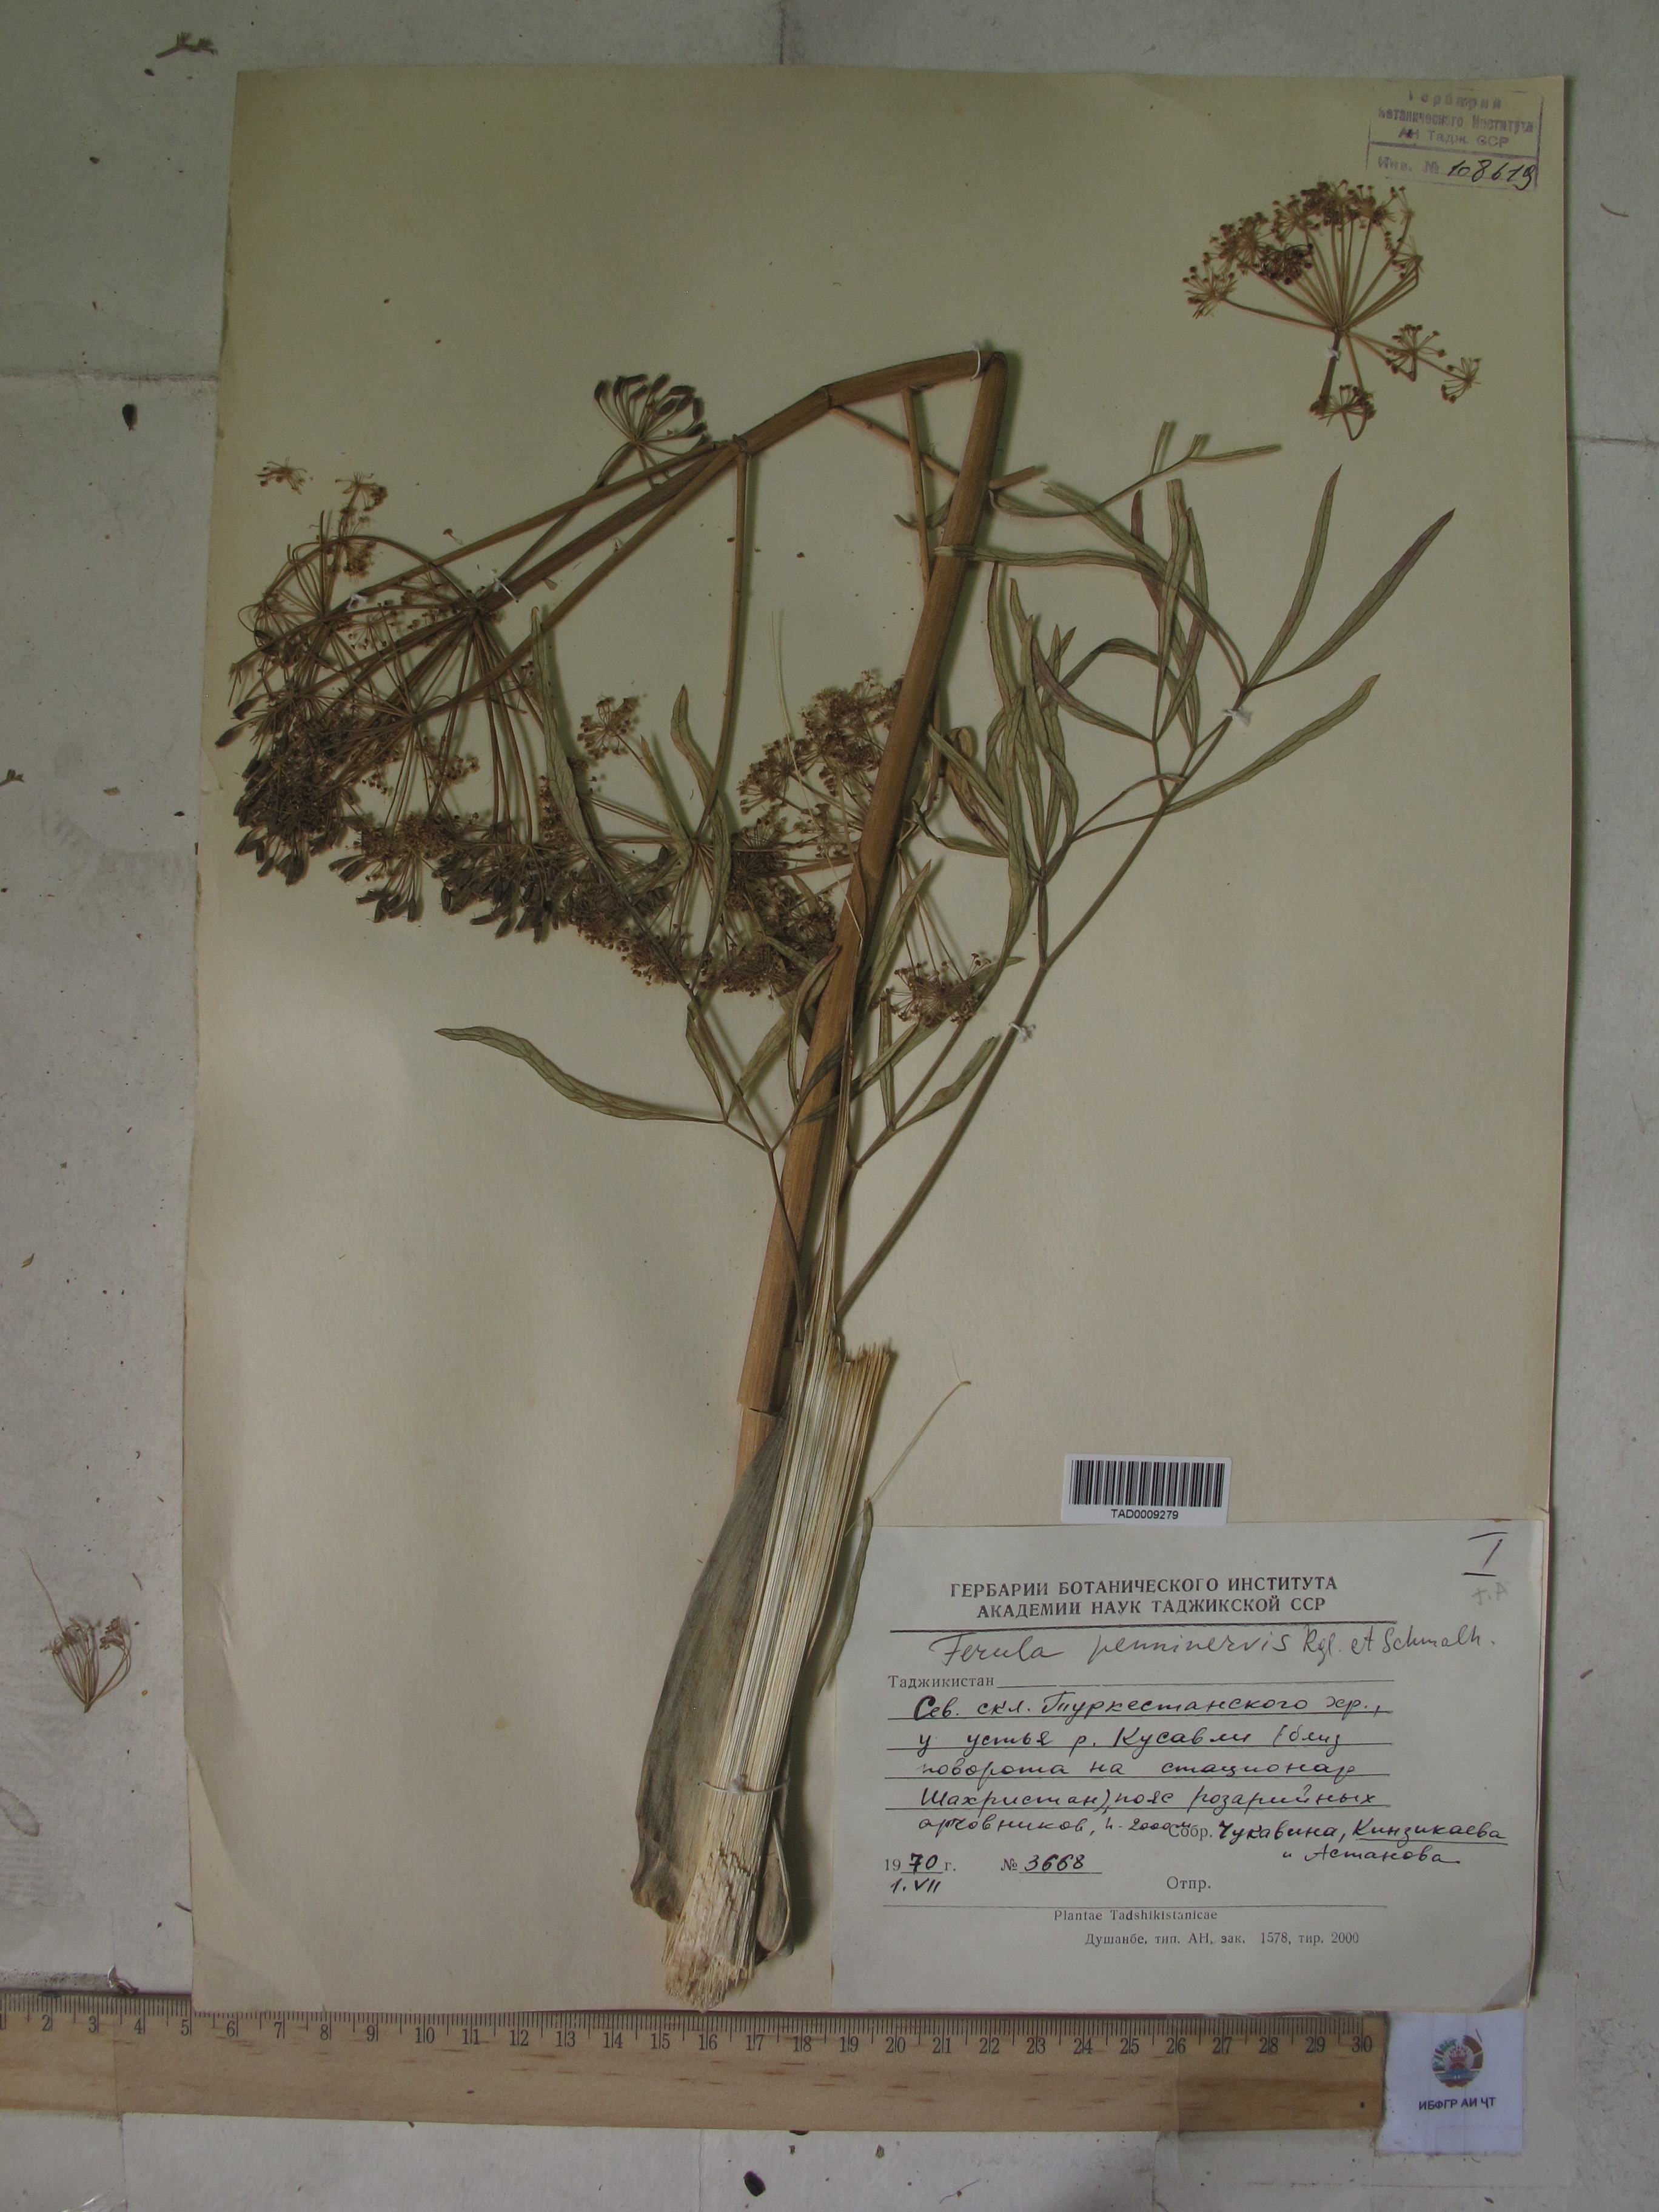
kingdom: Plantae
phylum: Tracheophyta
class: Magnoliopsida
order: Apiales
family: Apiaceae
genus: Ferula
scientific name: Ferula
